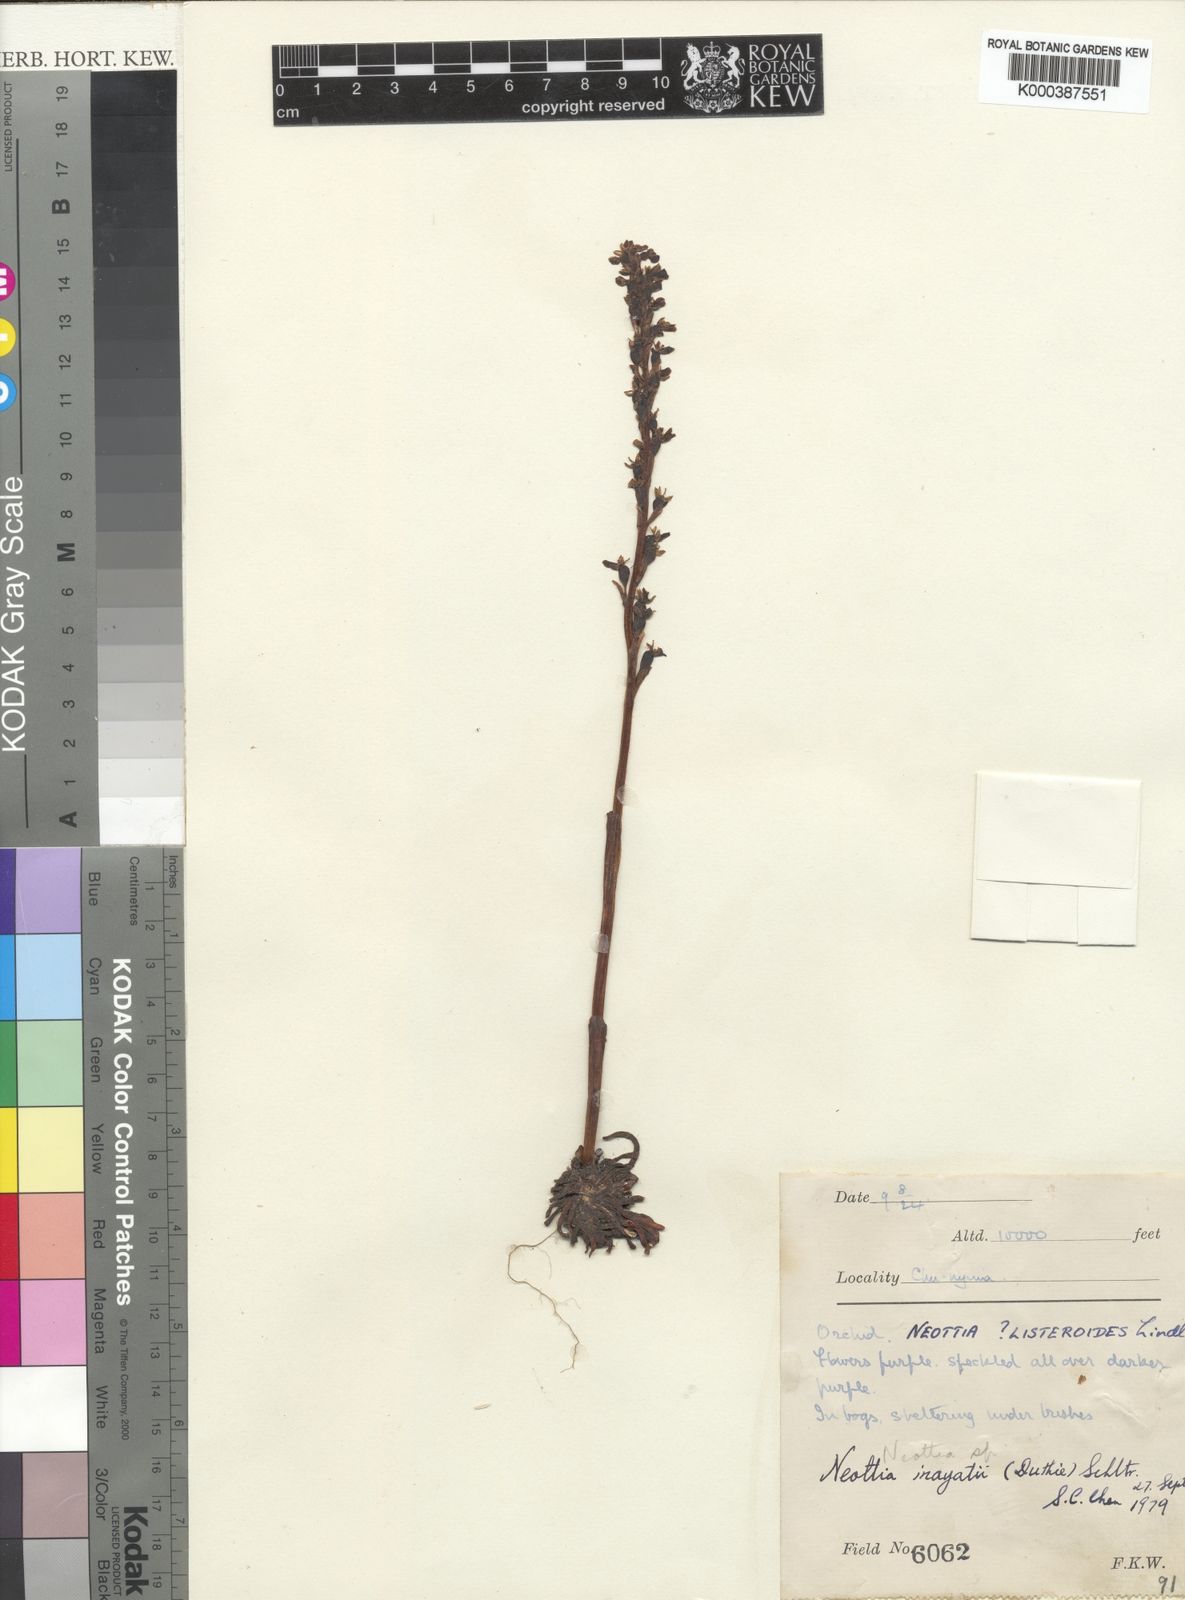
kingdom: Plantae
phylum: Tracheophyta
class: Liliopsida
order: Asparagales
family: Orchidaceae
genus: Neottia
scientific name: Neottia inayatii
